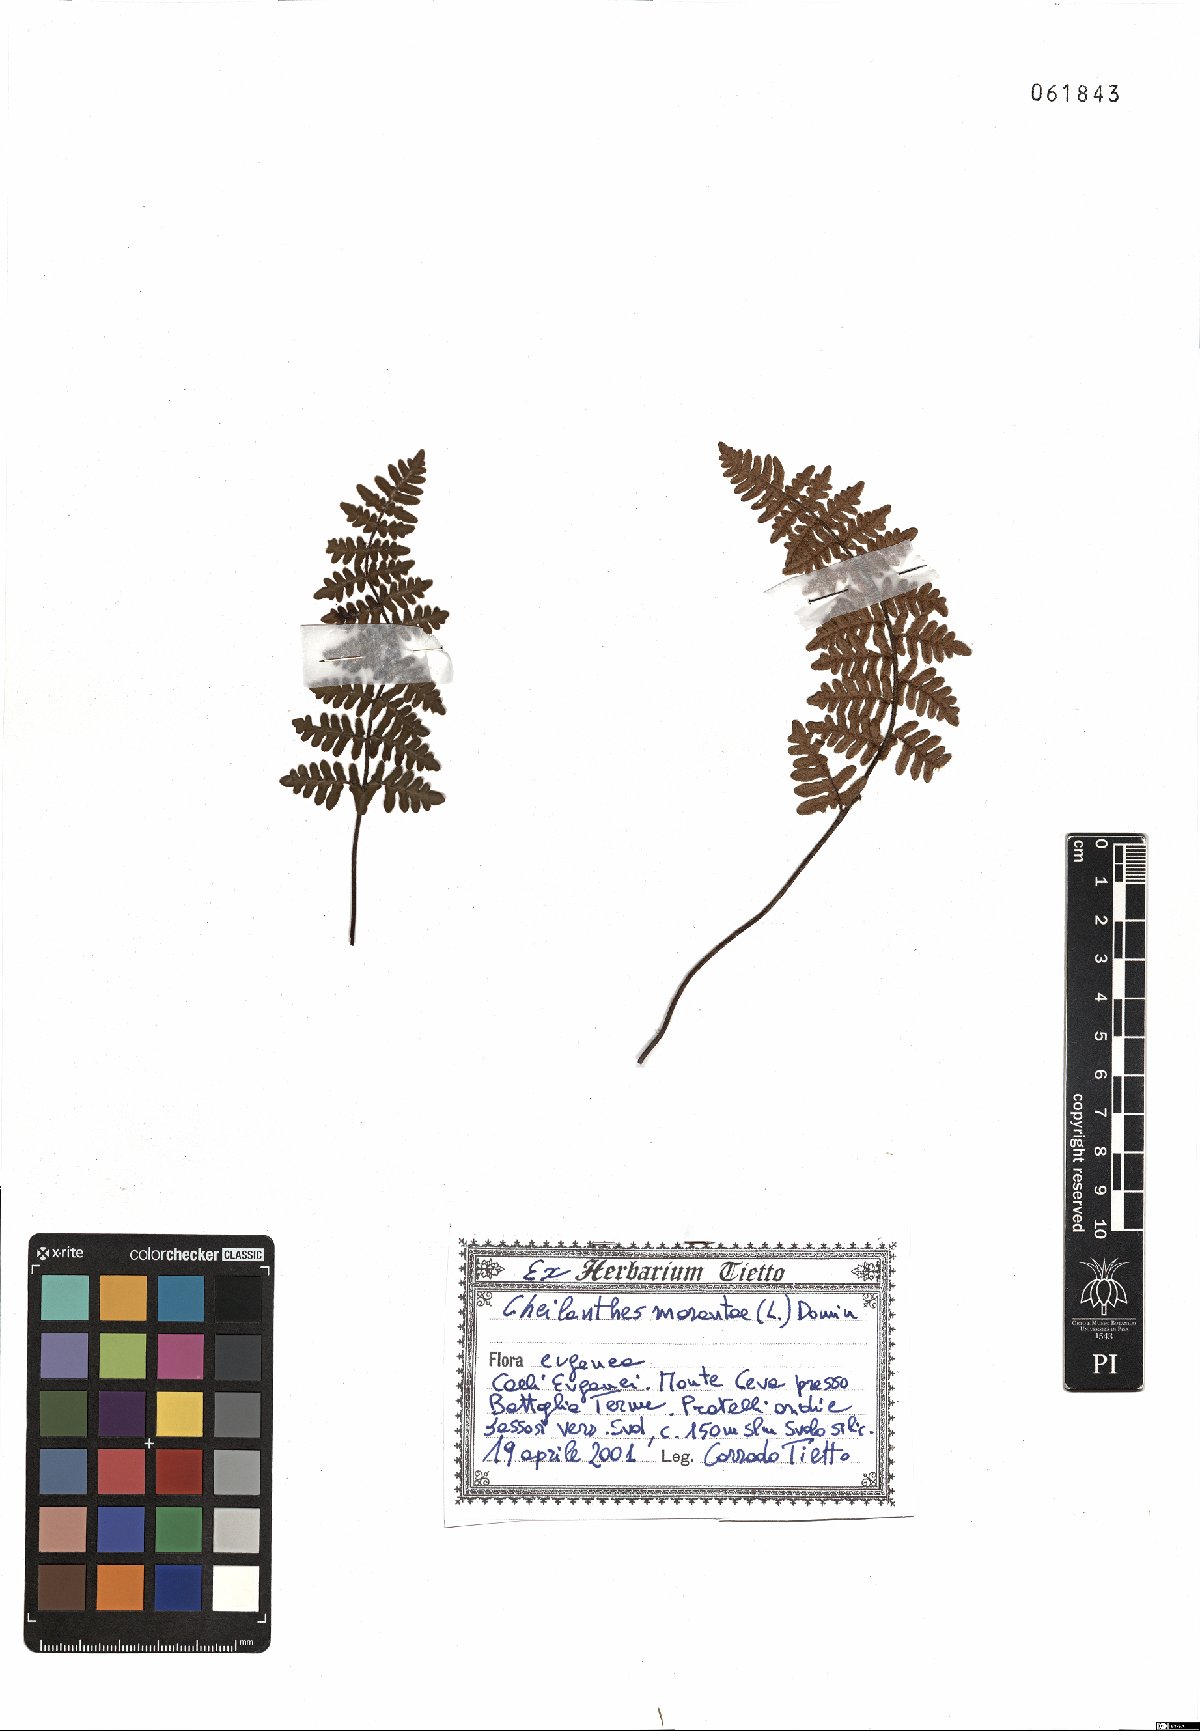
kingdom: Plantae
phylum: Tracheophyta
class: Polypodiopsida
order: Polypodiales
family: Pteridaceae
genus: Paragymnopteris
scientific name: Paragymnopteris marantae
